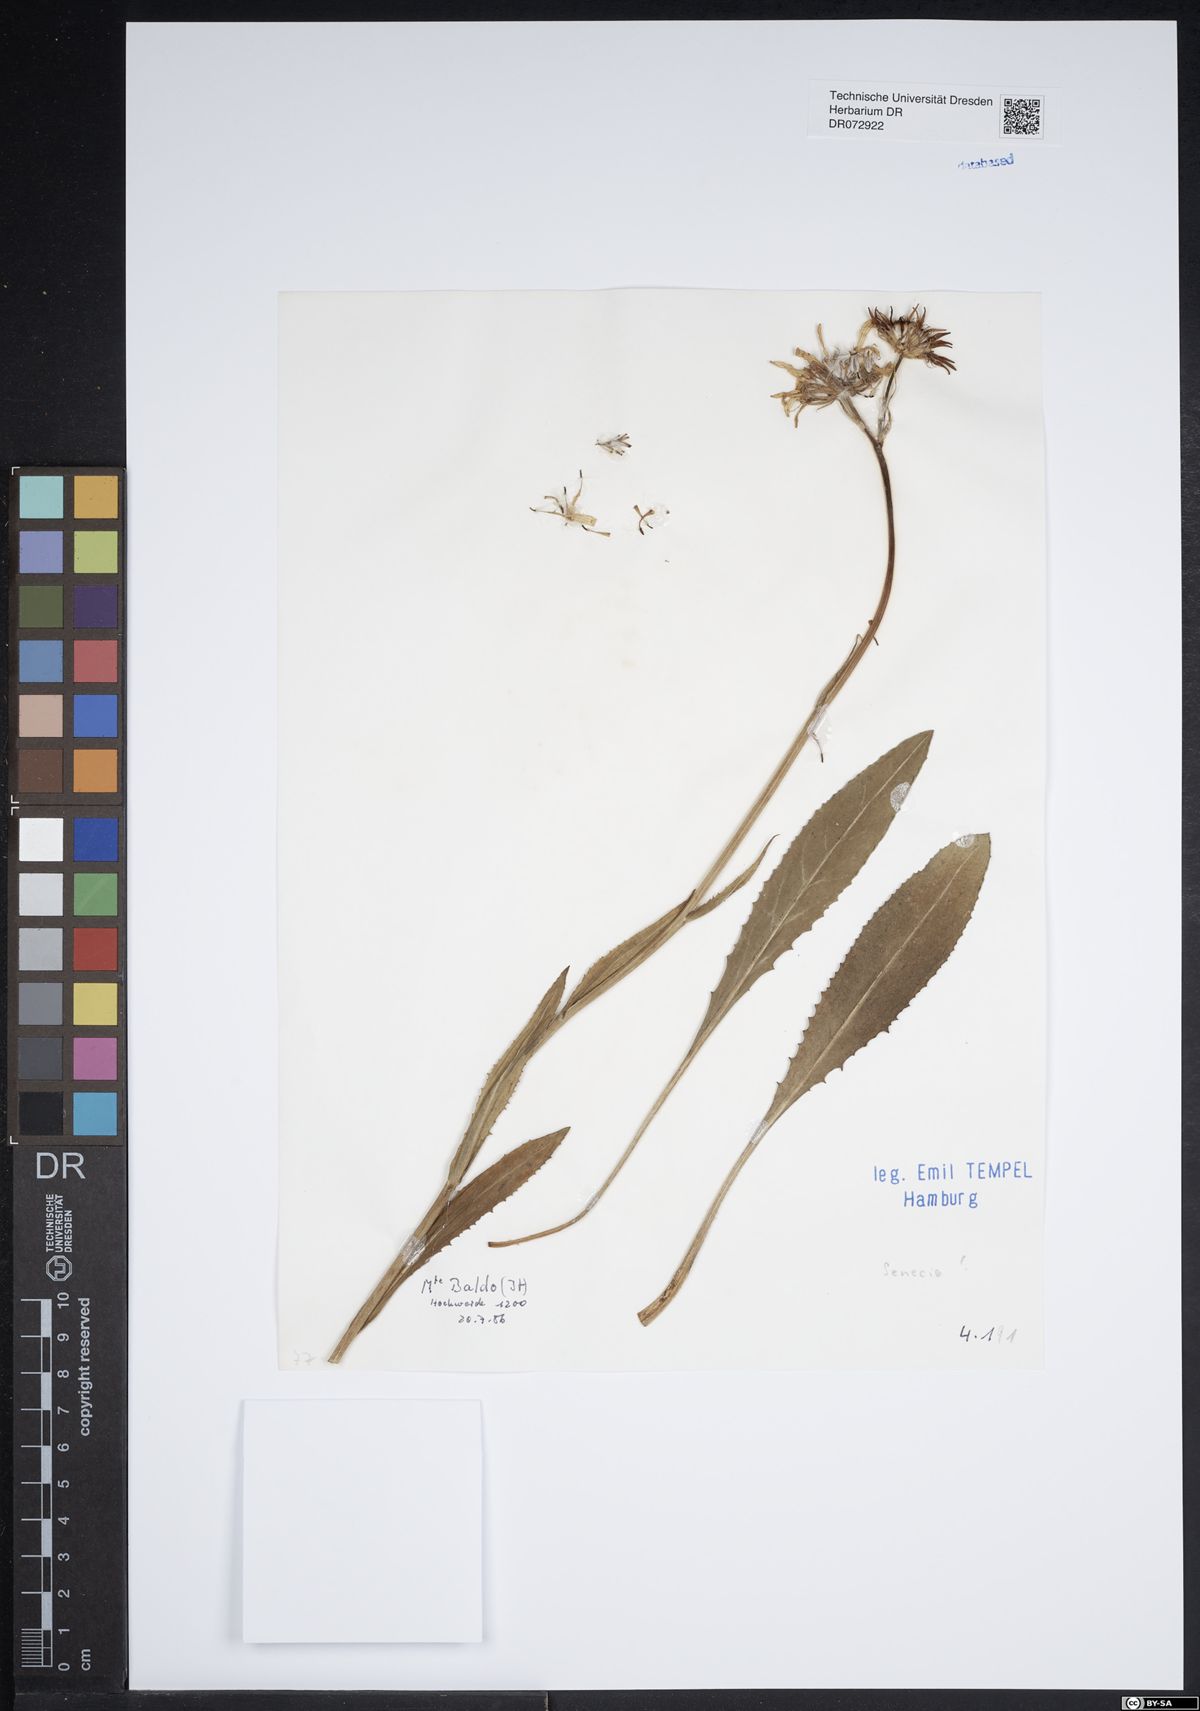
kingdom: Plantae
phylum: Tracheophyta
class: Magnoliopsida
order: Asterales
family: Asteraceae
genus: Senecio
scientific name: Senecio
